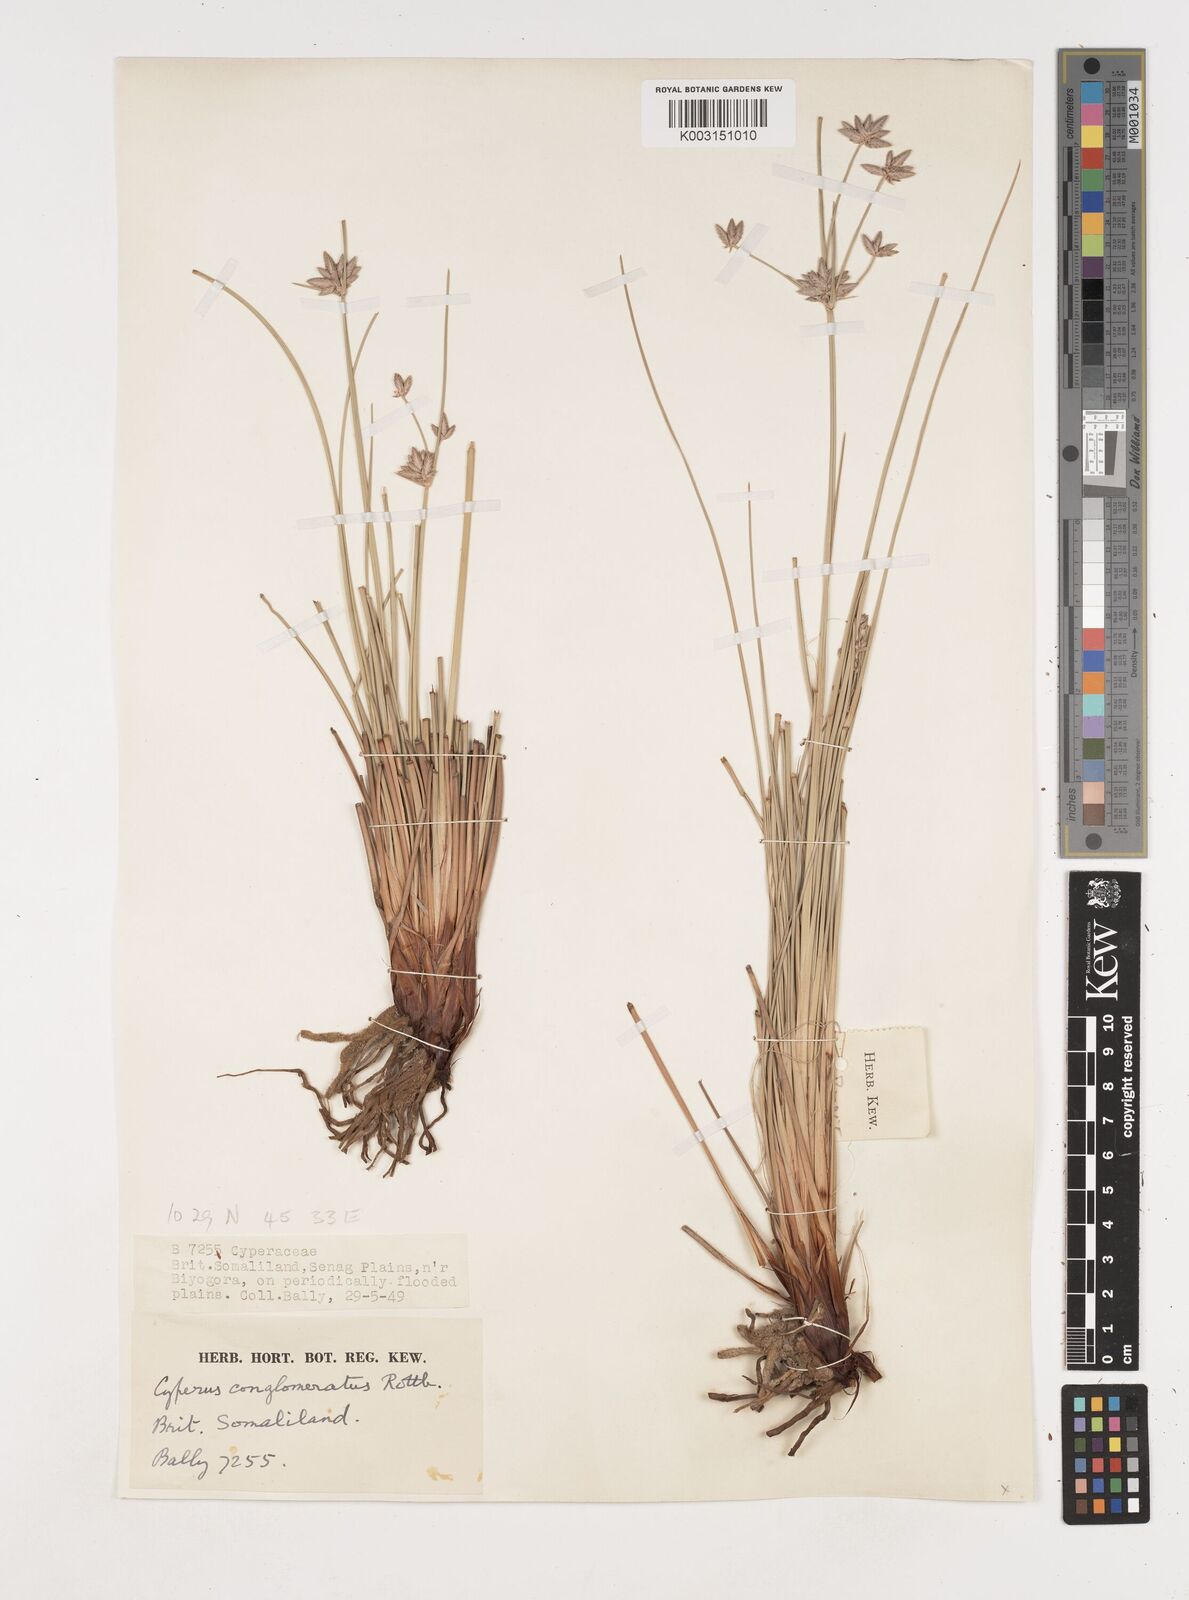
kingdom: Plantae
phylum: Tracheophyta
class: Liliopsida
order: Poales
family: Cyperaceae
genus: Cyperus
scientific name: Cyperus conglomeratus
